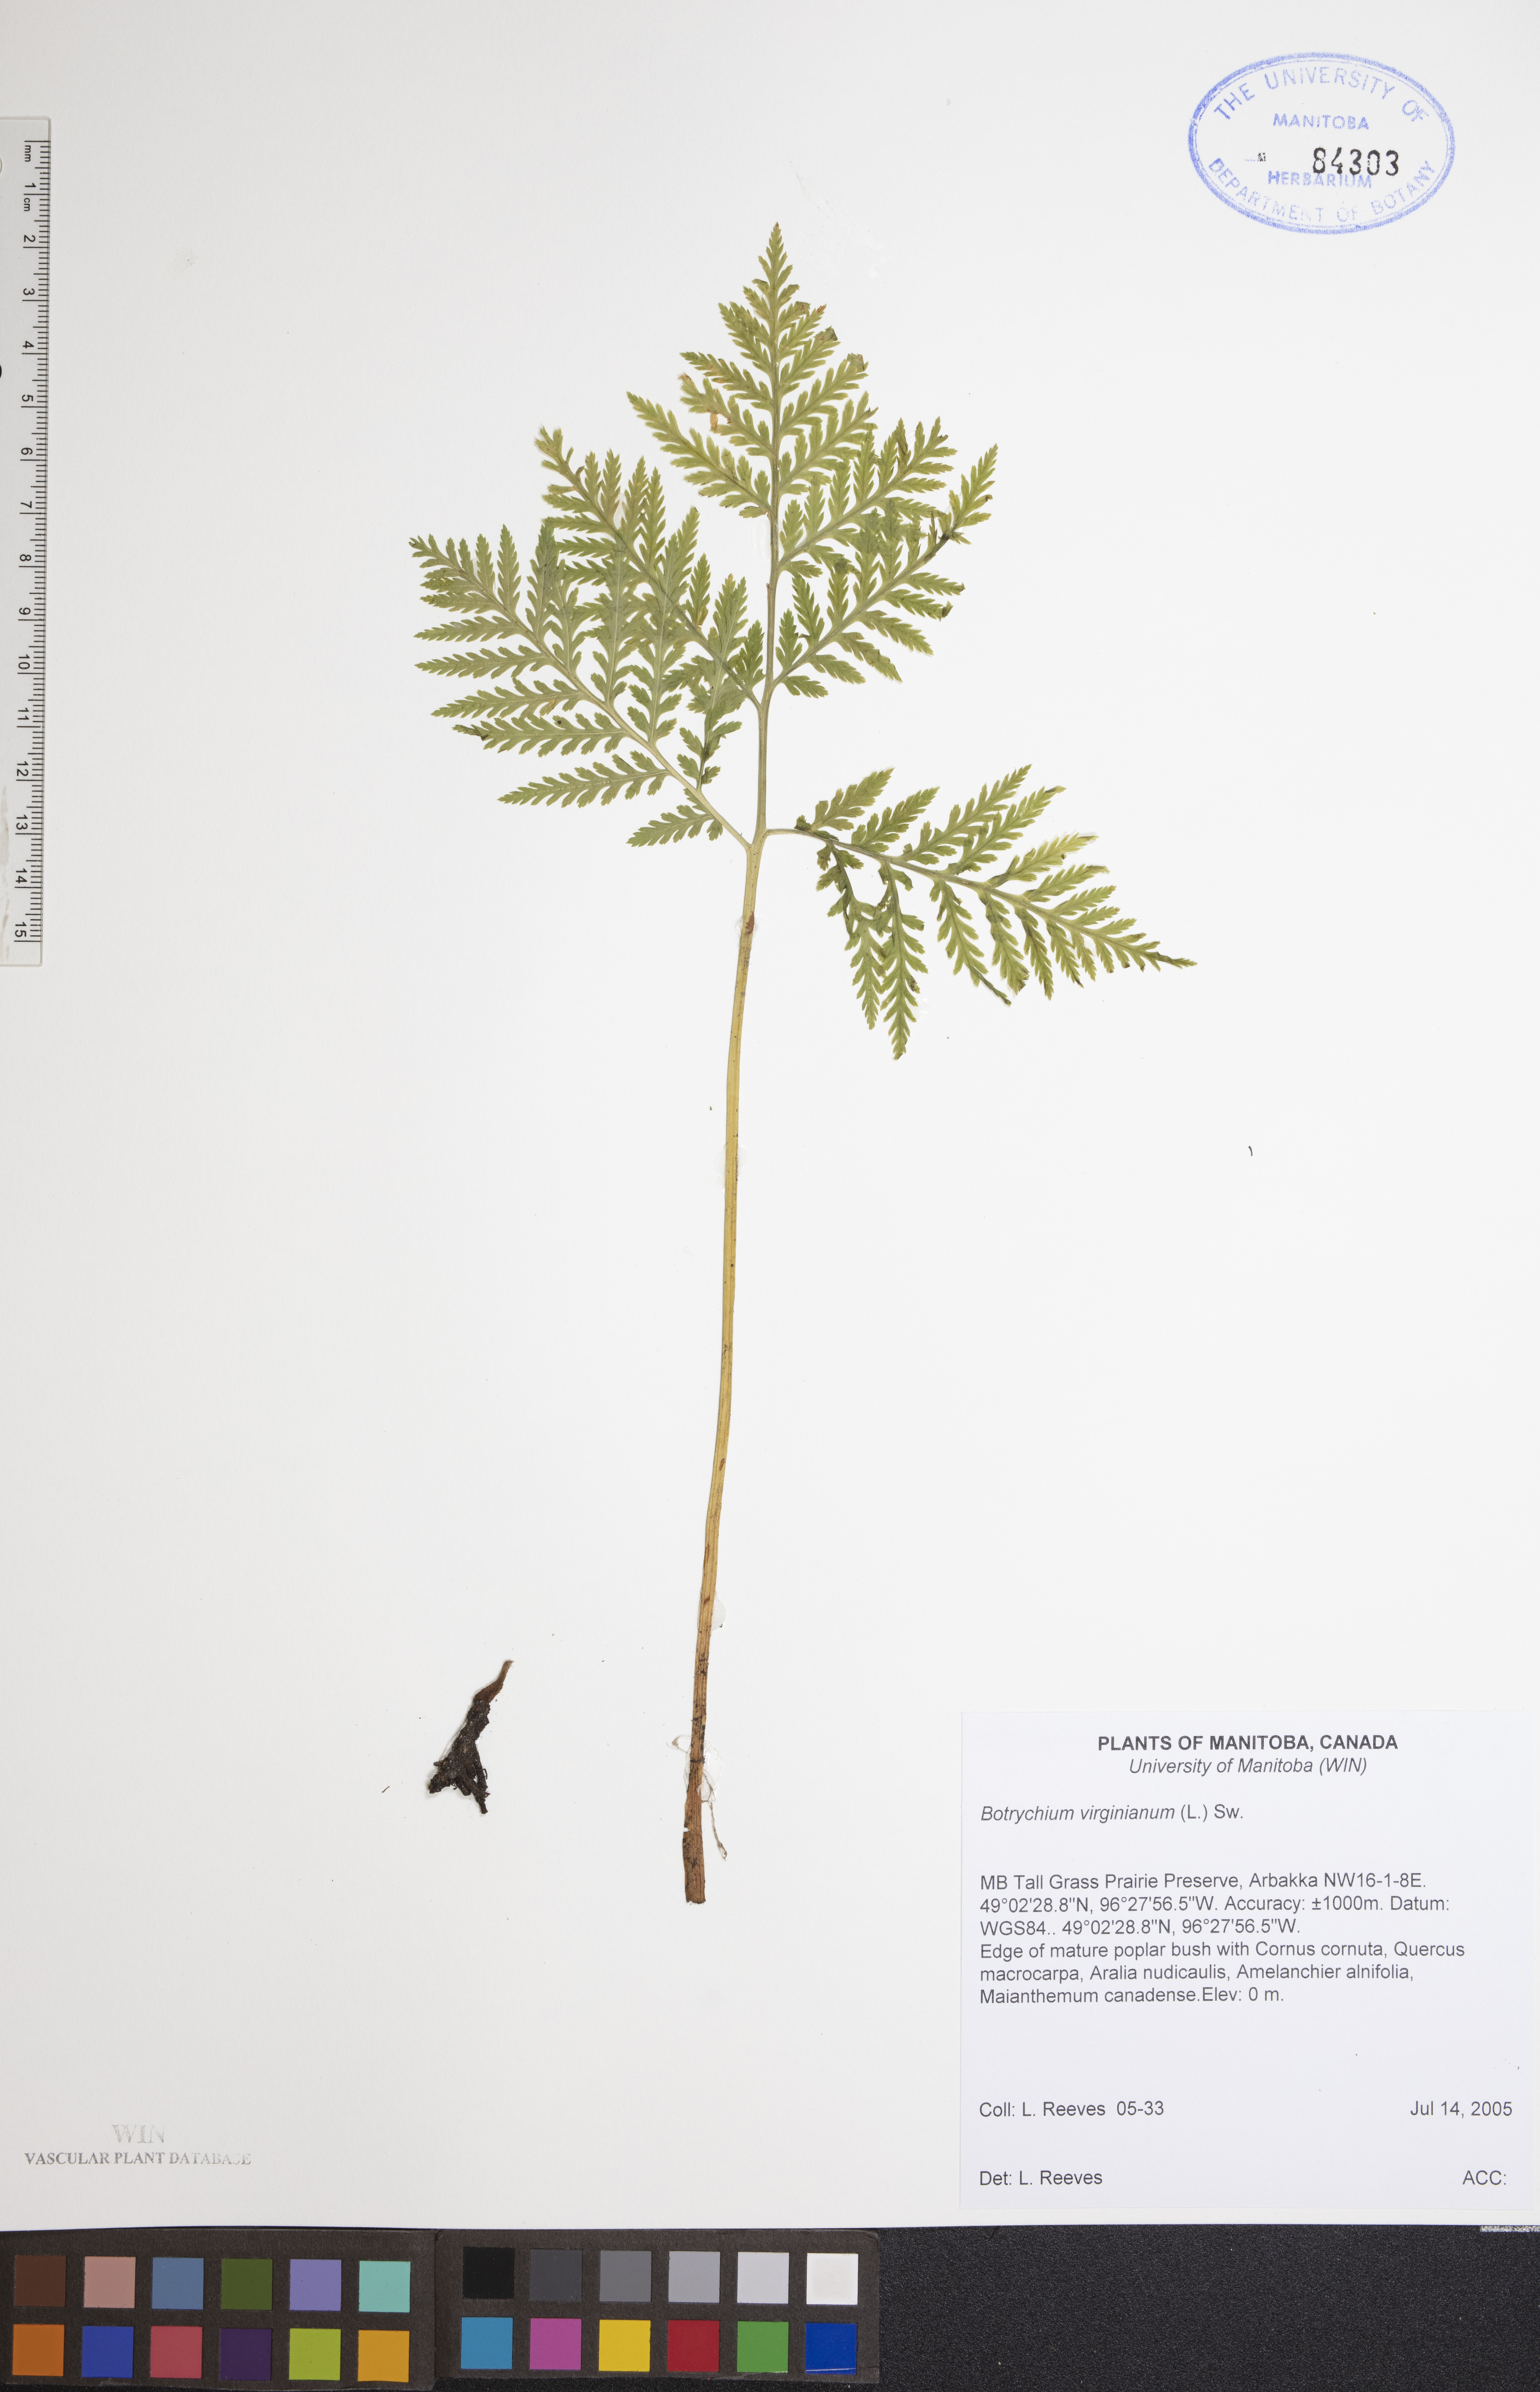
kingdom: Plantae
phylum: Tracheophyta
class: Polypodiopsida
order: Ophioglossales
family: Ophioglossaceae
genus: Botrypus
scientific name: Botrypus virginianus
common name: Common grapefern
